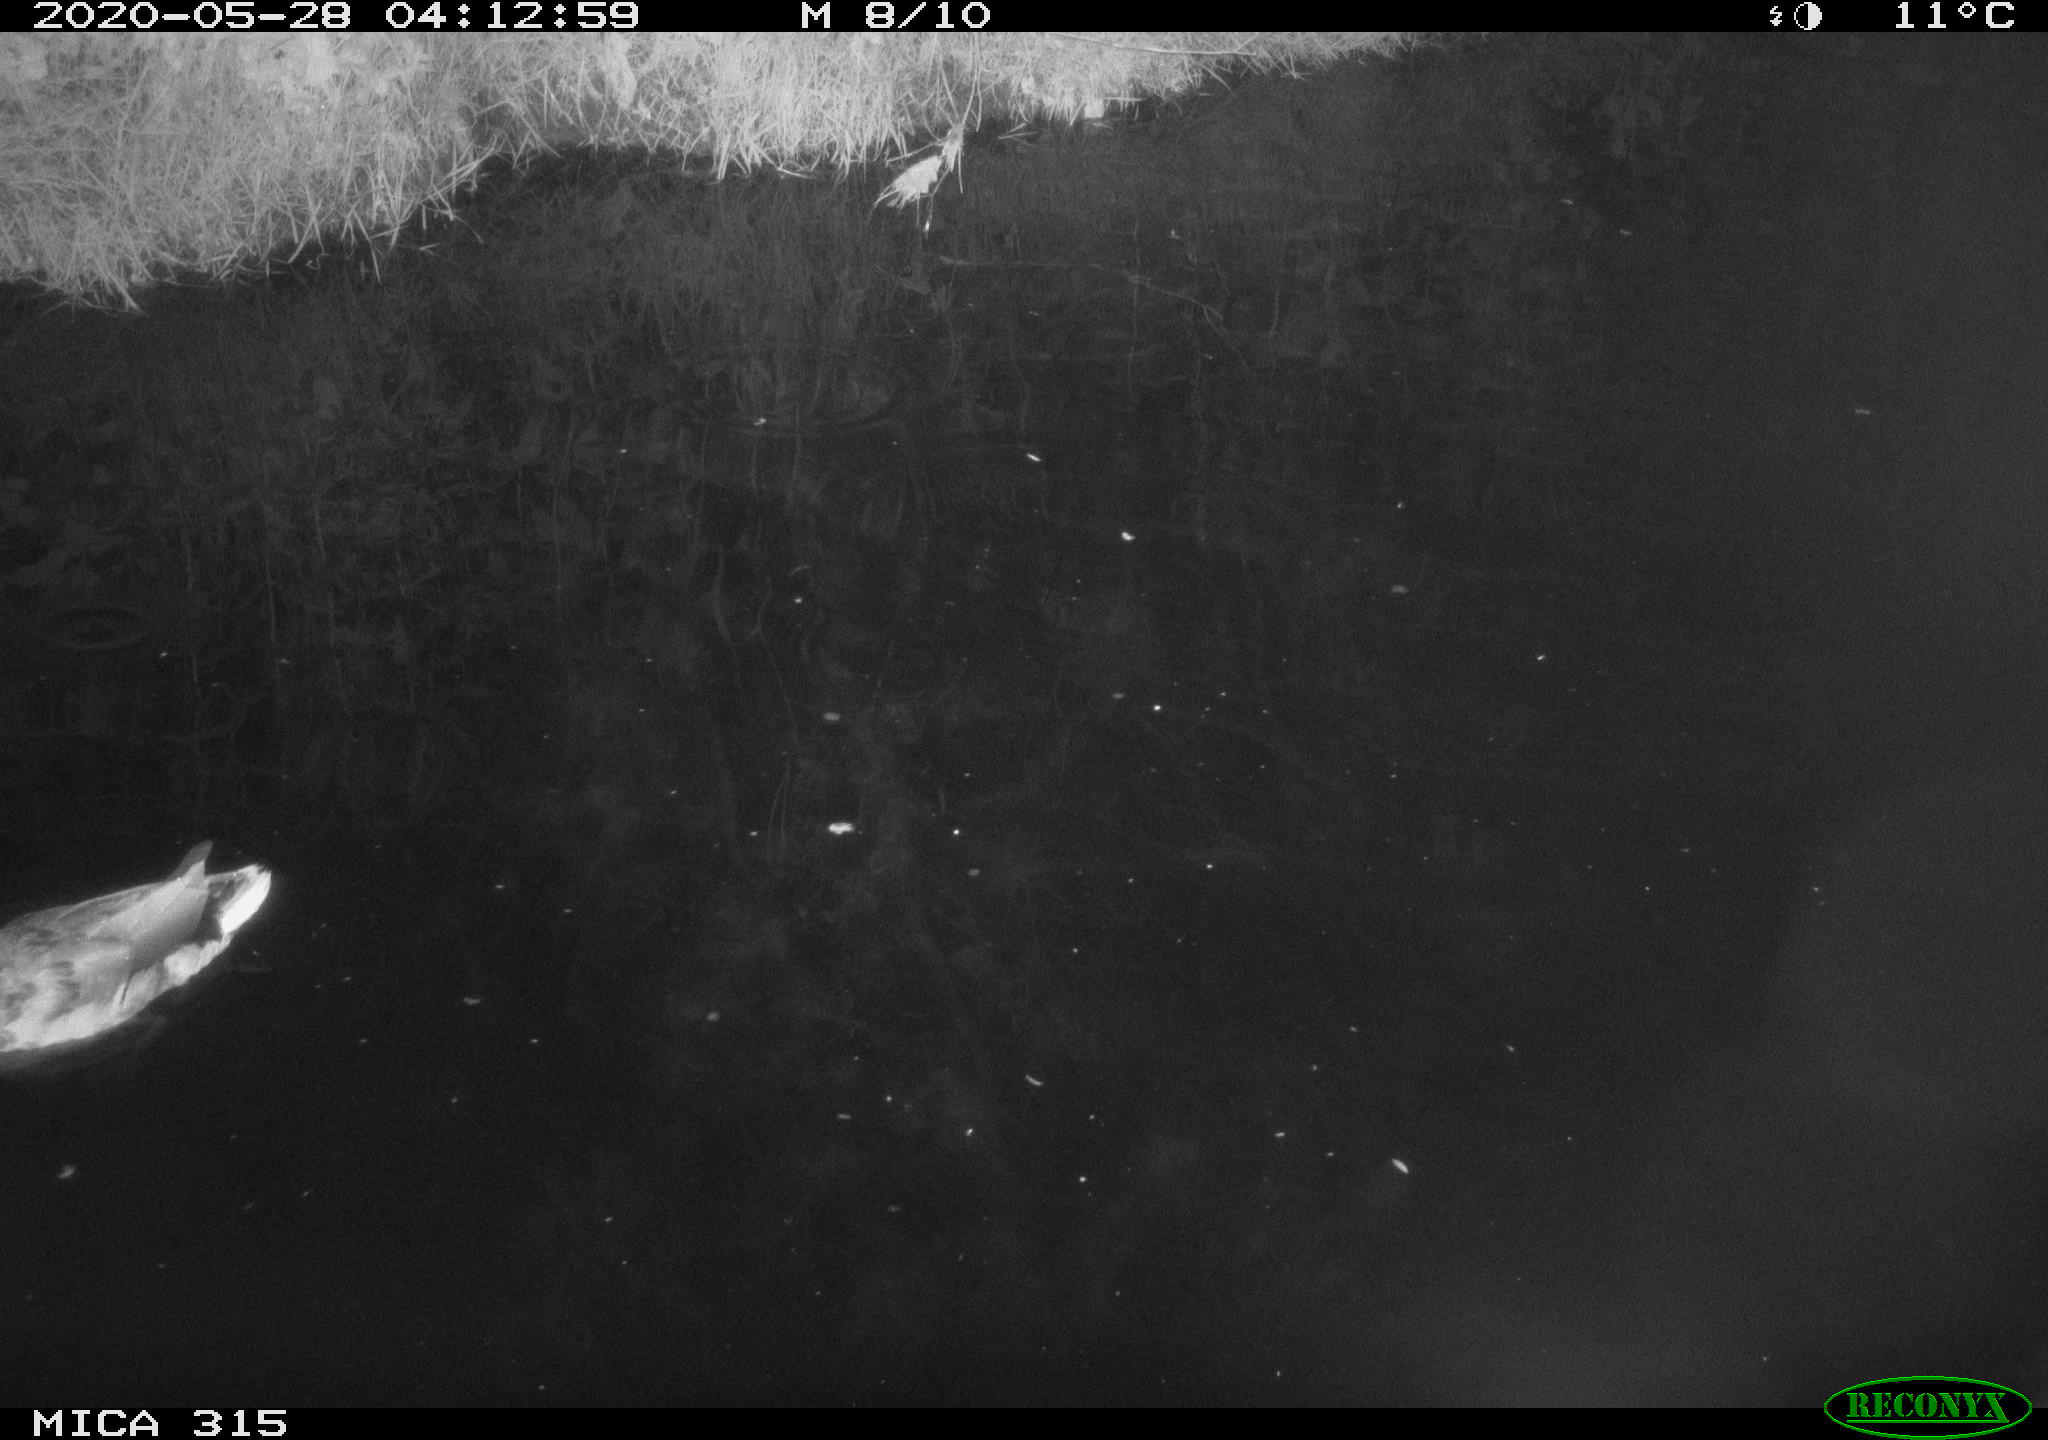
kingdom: Animalia
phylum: Chordata
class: Aves
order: Anseriformes
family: Anatidae
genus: Anas
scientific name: Anas platyrhynchos
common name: Mallard
